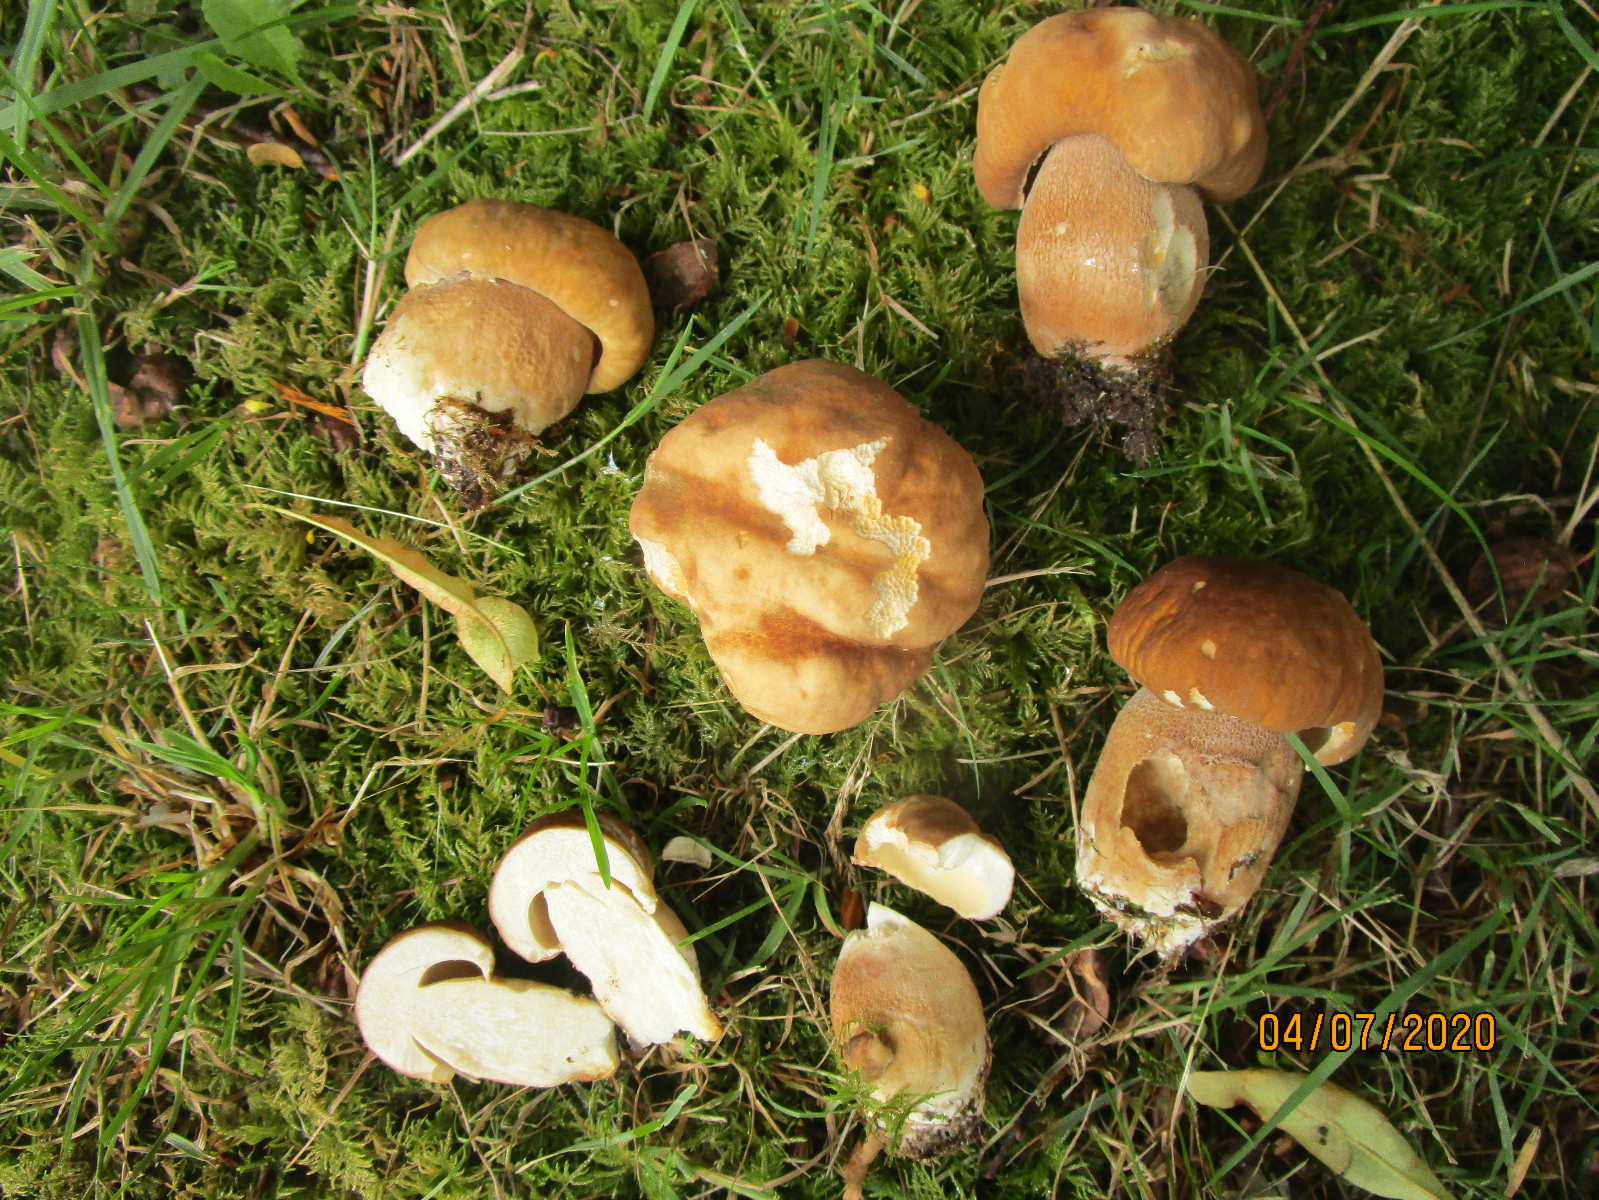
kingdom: Fungi
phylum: Basidiomycota
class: Agaricomycetes
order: Boletales
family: Boletaceae
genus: Boletus
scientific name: Boletus reticulatus
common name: sommer-rørhat
